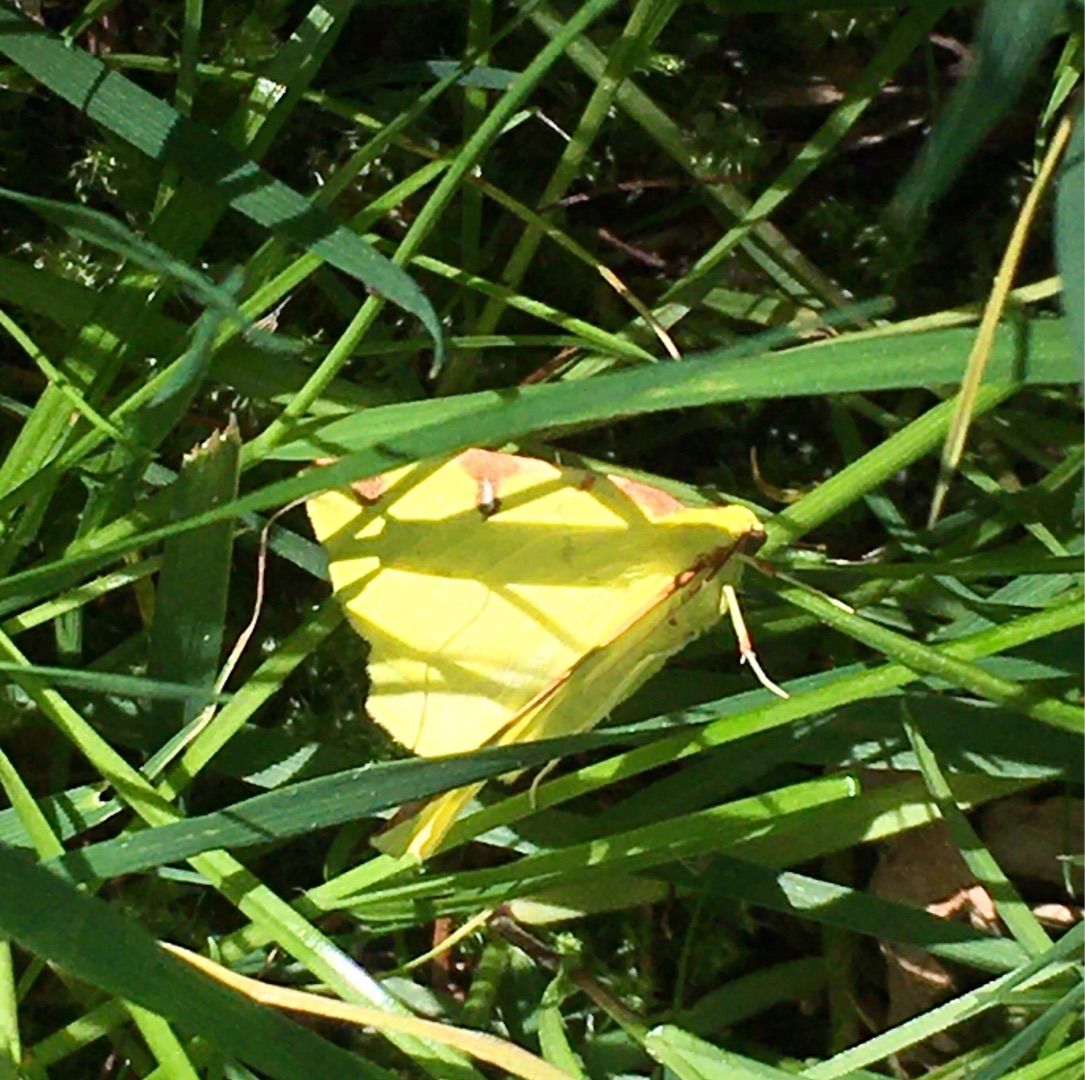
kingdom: Animalia
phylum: Arthropoda
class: Insecta
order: Lepidoptera
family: Geometridae
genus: Opisthograptis
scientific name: Opisthograptis luteolata
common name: Citronmåler
